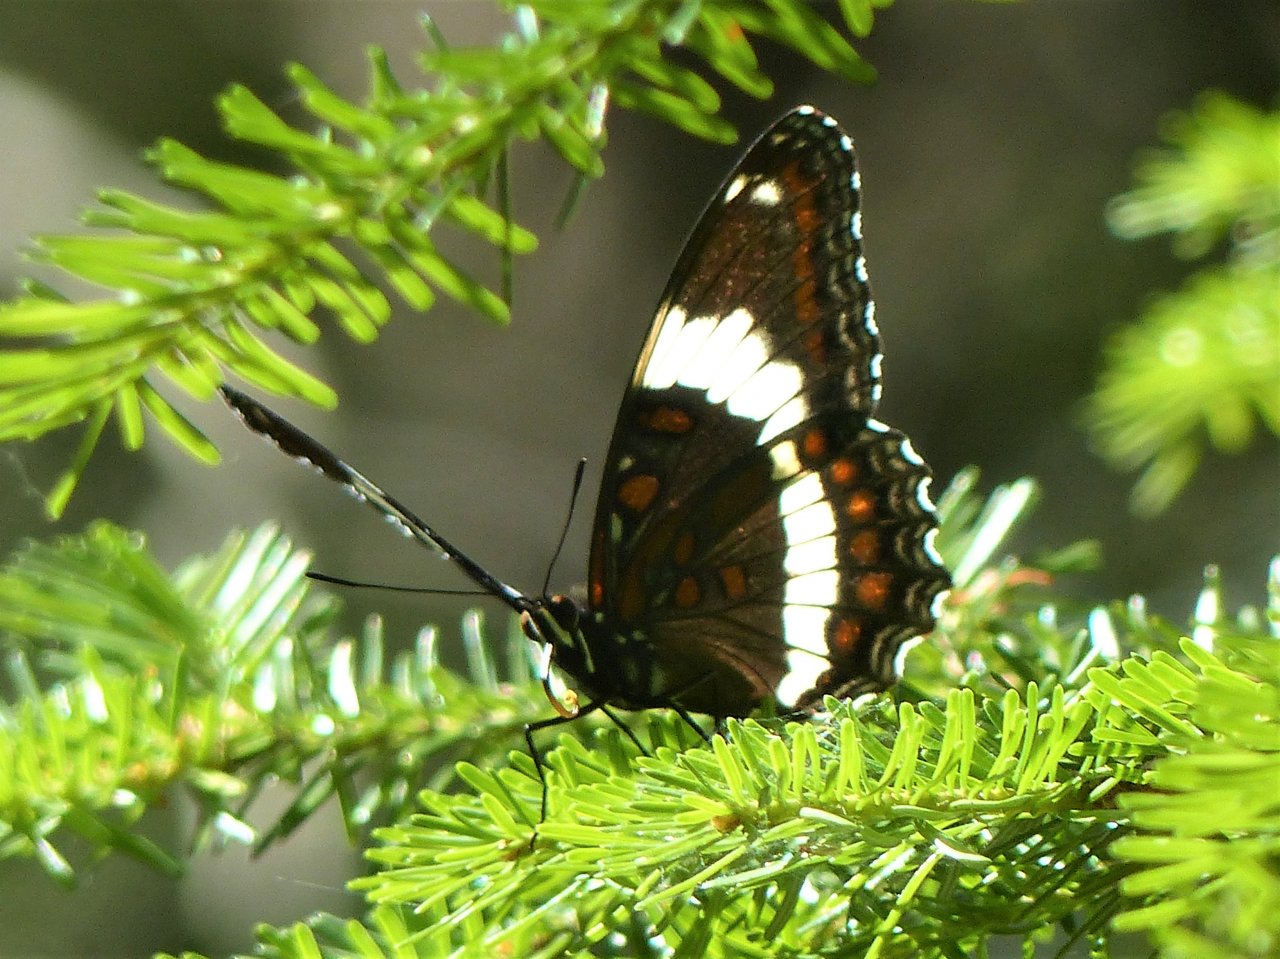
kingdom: Animalia
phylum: Arthropoda
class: Insecta
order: Lepidoptera
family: Nymphalidae
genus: Limenitis
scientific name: Limenitis arthemis
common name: Red-spotted Admiral
